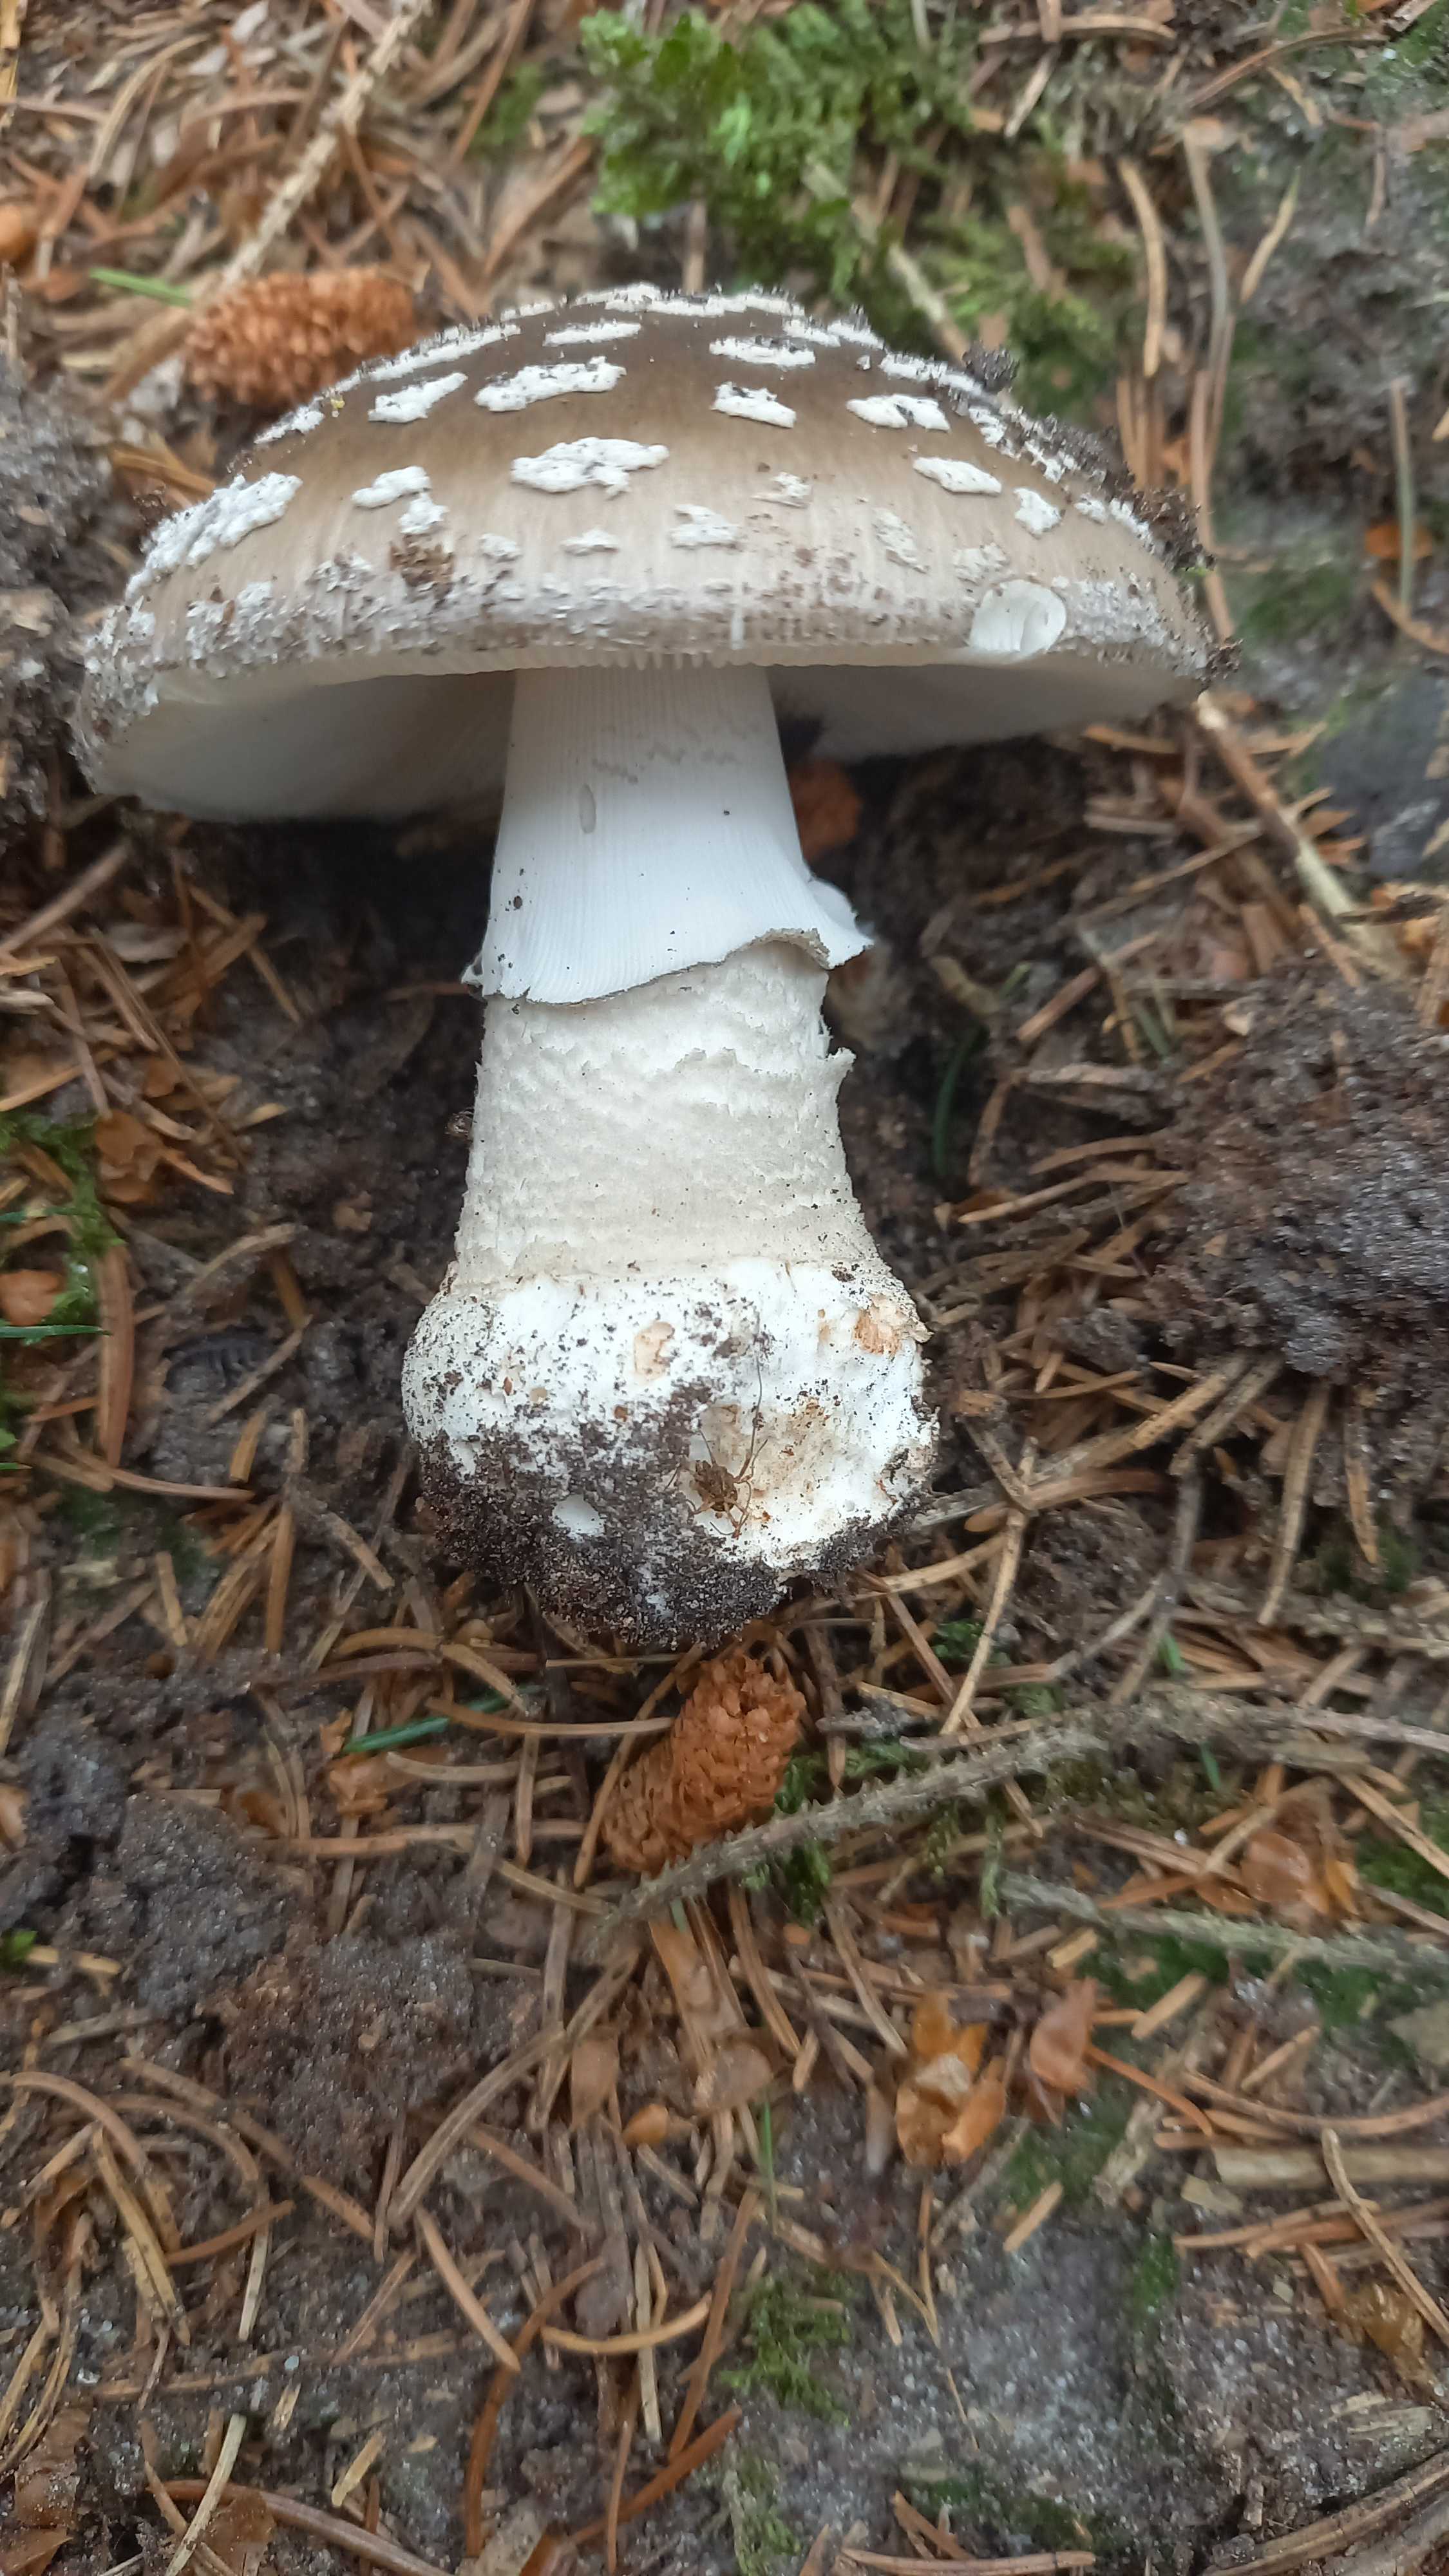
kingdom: Fungi
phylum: Basidiomycota
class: Agaricomycetes
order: Agaricales
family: Amanitaceae
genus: Amanita
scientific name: Amanita
